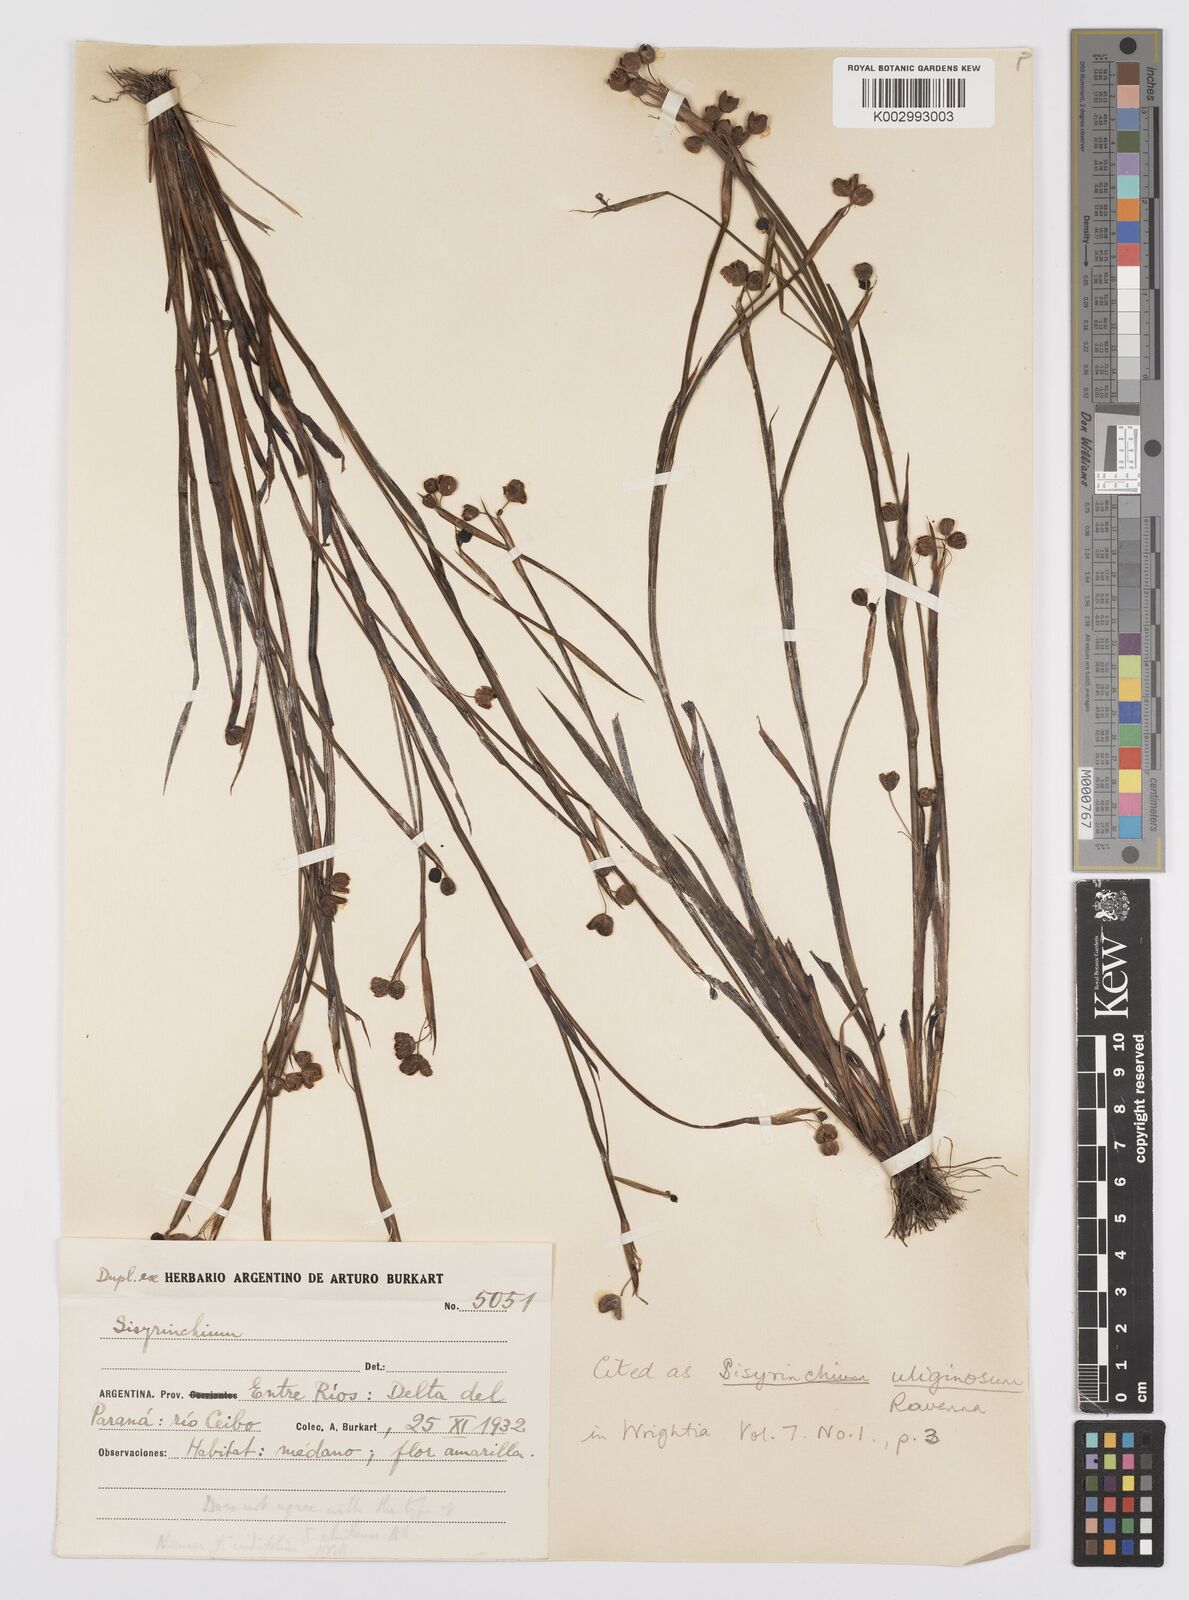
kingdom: Plantae
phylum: Tracheophyta
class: Liliopsida
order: Asparagales
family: Iridaceae
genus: Sisyrinchium
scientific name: Sisyrinchium uliginosum
